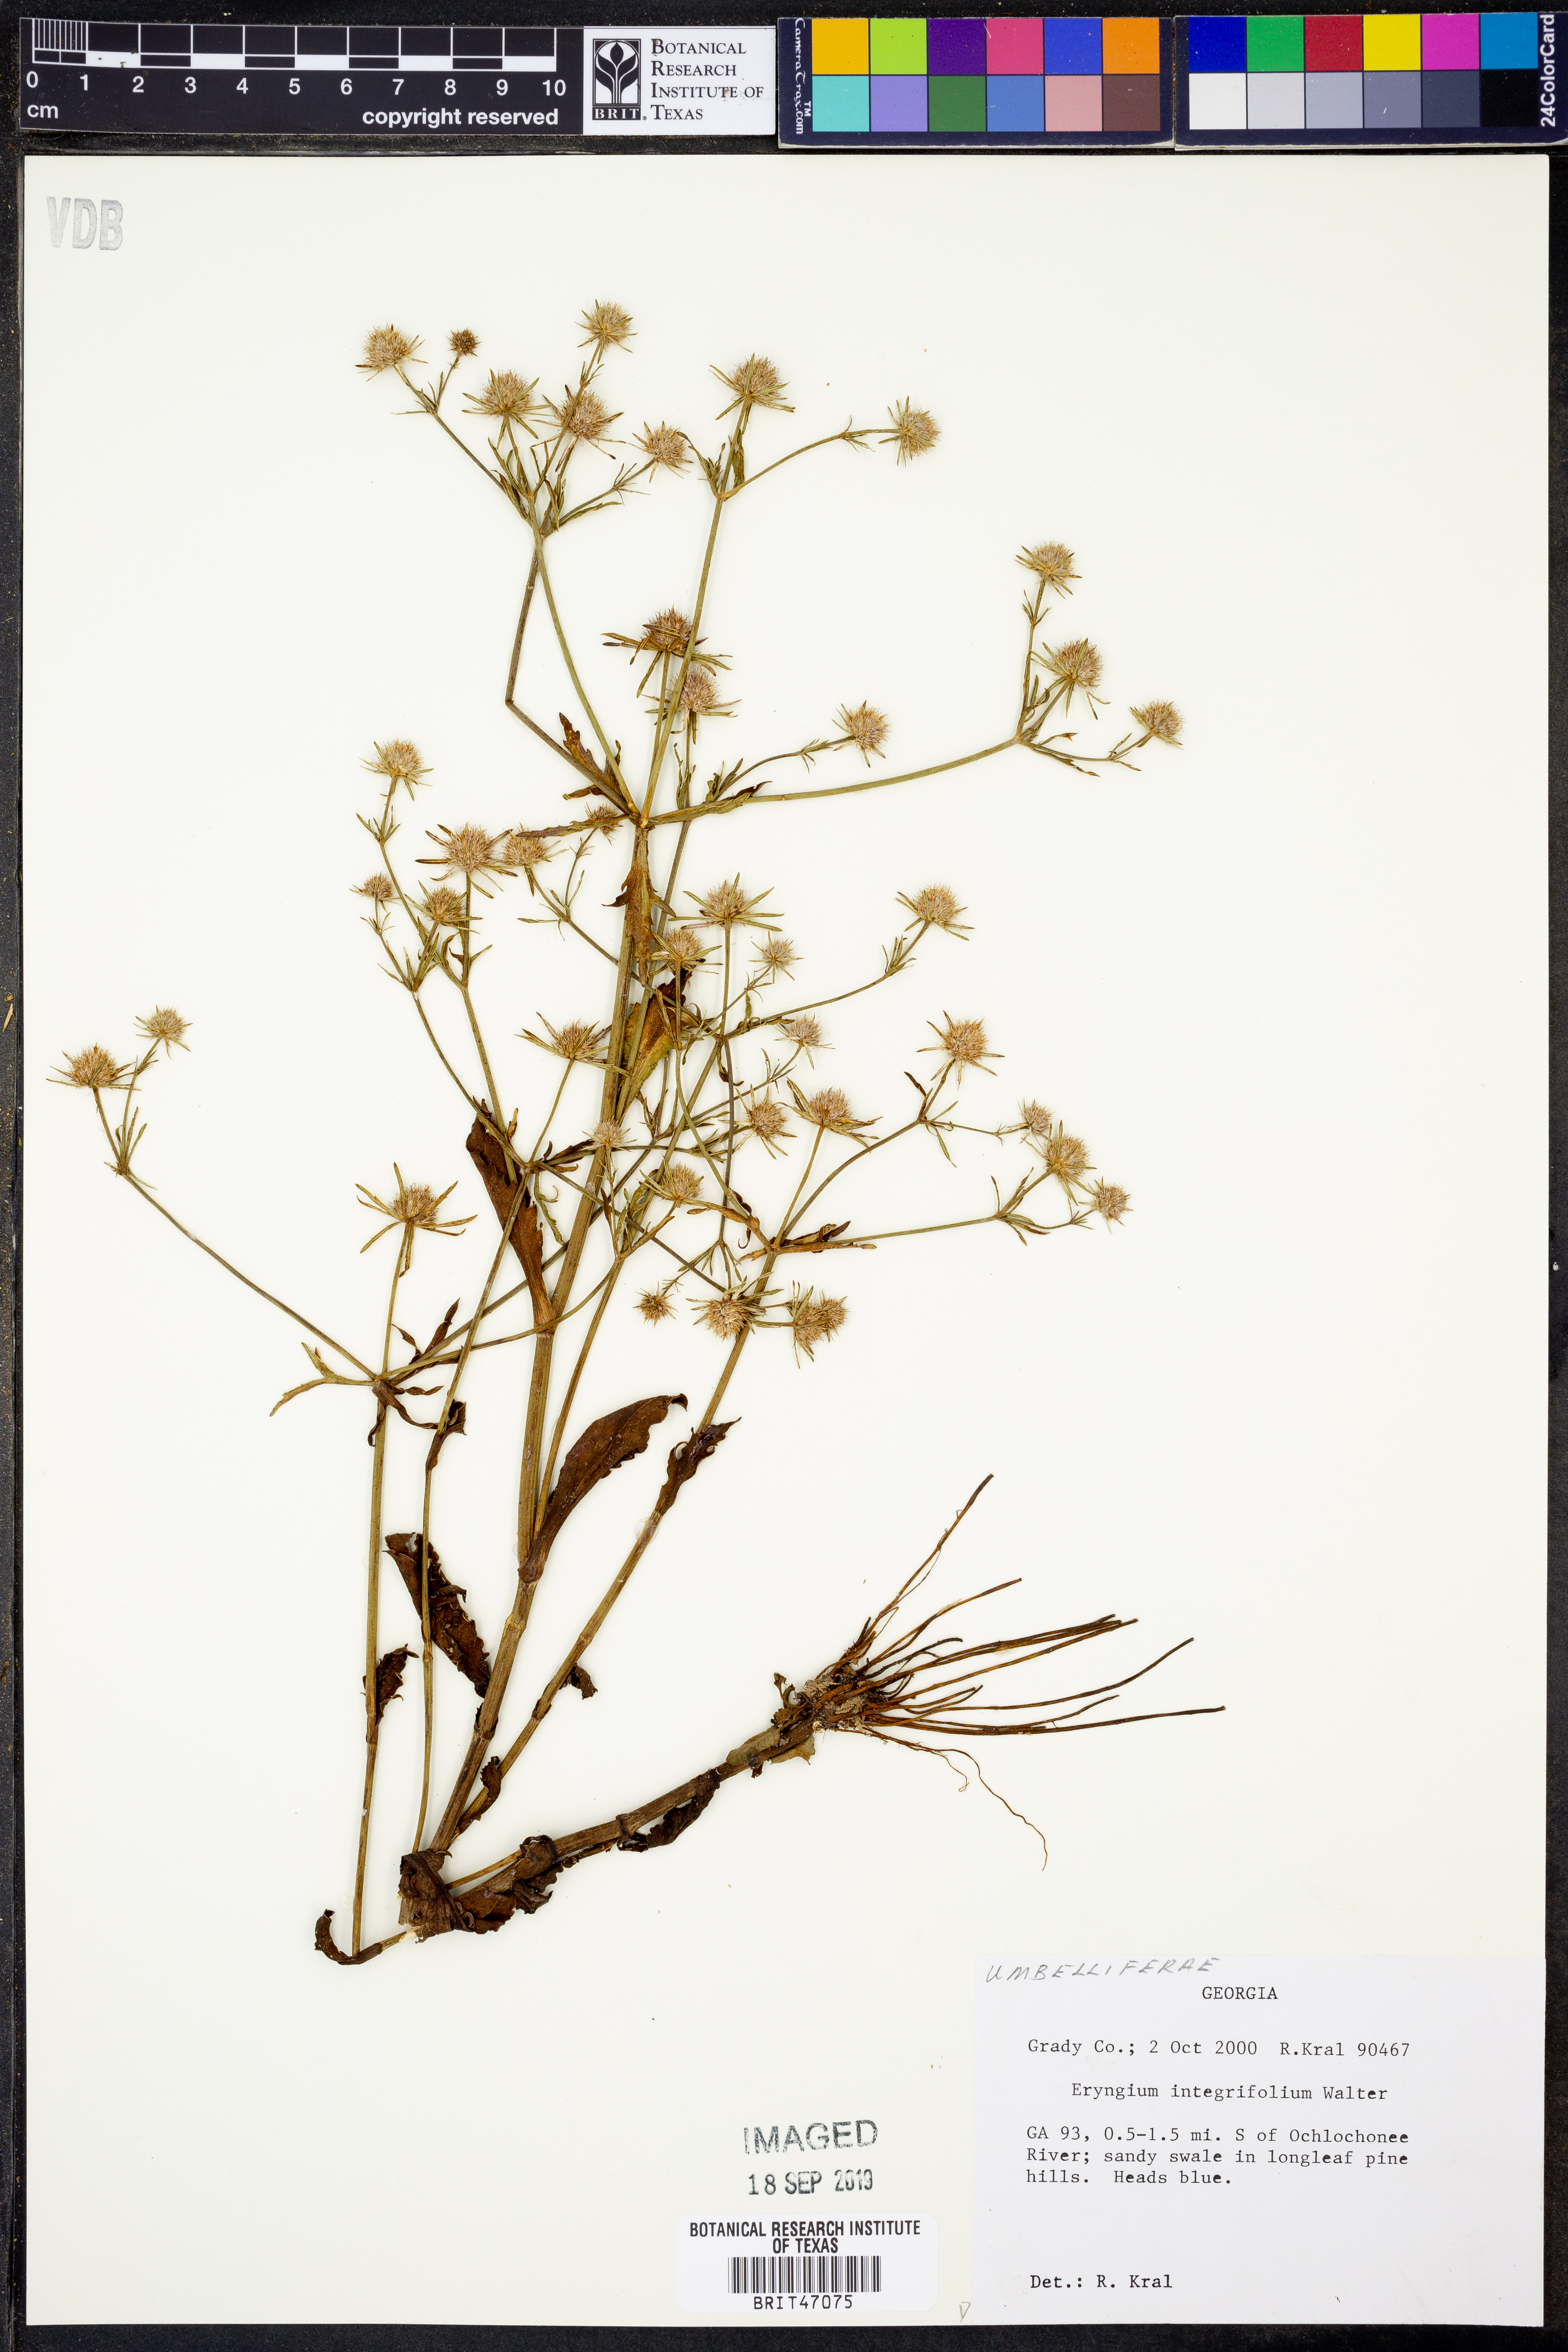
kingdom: Plantae
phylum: Tracheophyta
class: Magnoliopsida
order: Apiales
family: Apiaceae
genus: Eryngium
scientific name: Eryngium integrifolium
